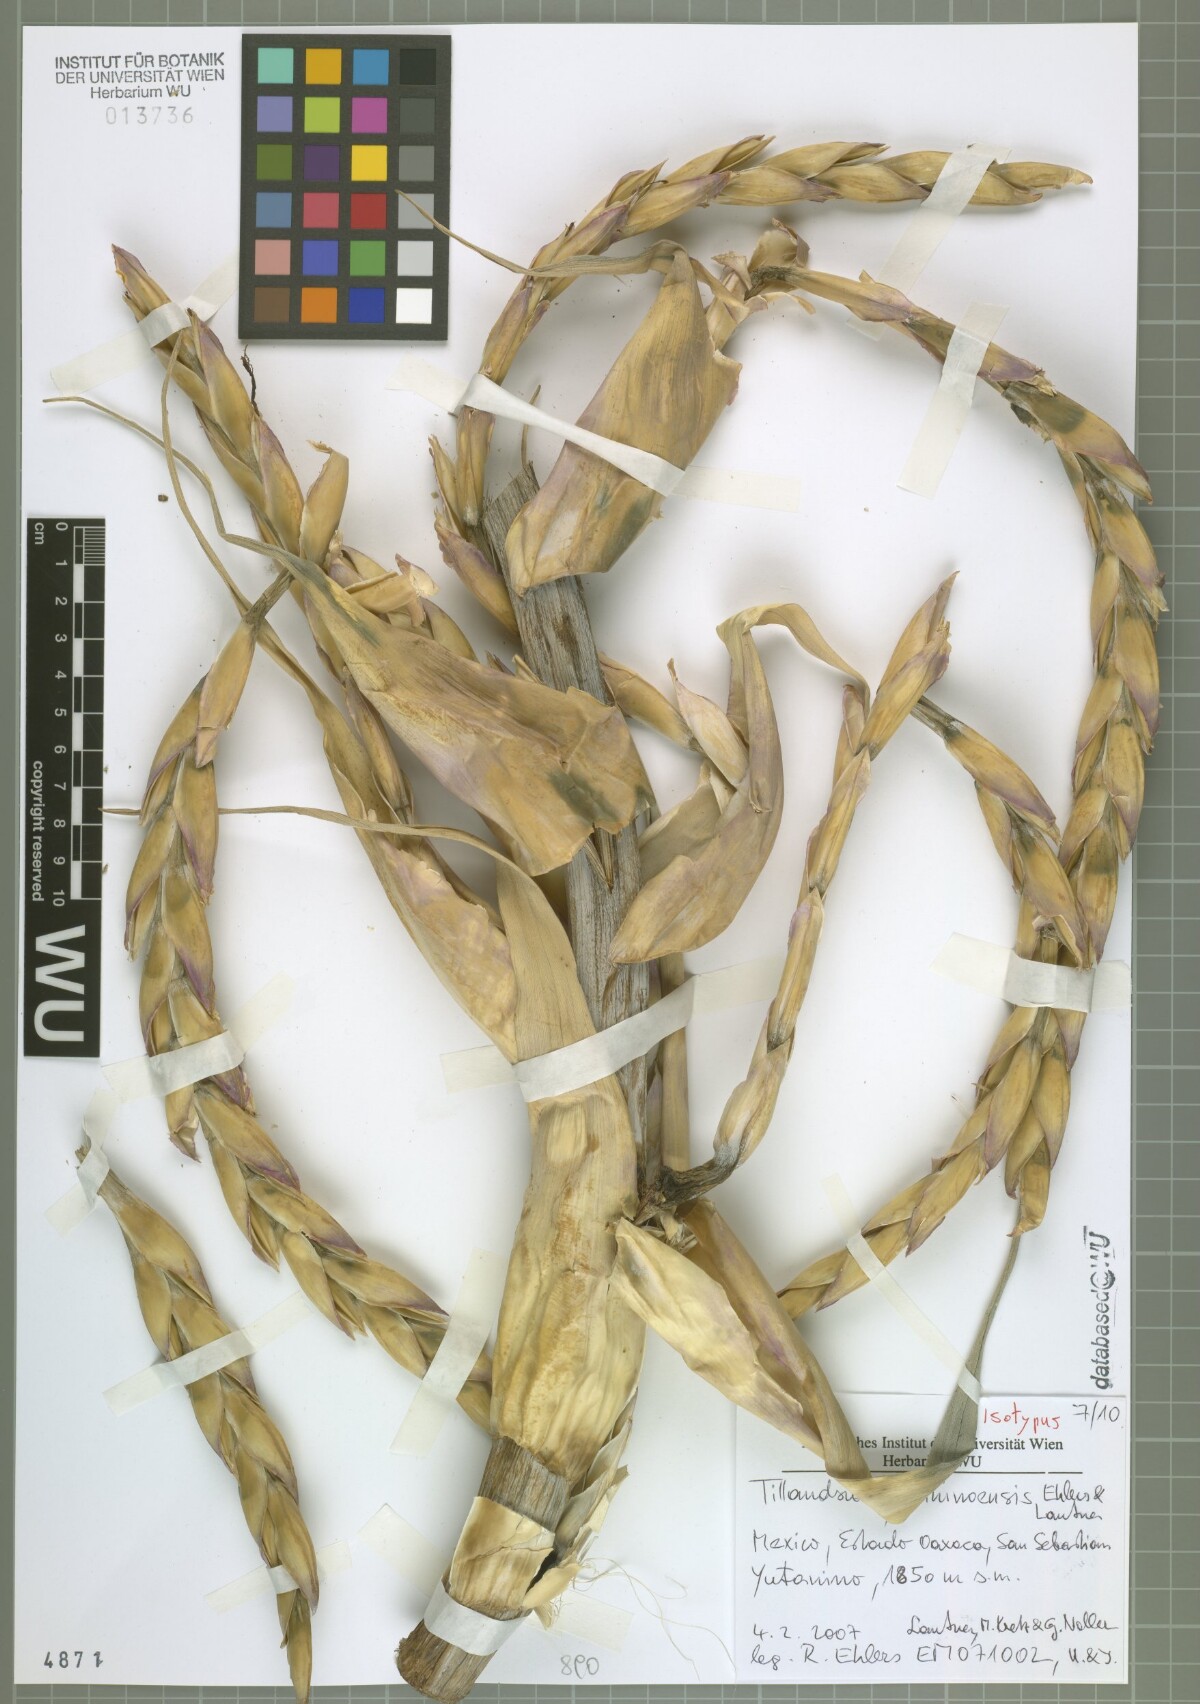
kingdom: Plantae
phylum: Tracheophyta
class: Liliopsida
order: Poales
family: Bromeliaceae
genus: Tillandsia
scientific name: Tillandsia yutaninoensis
